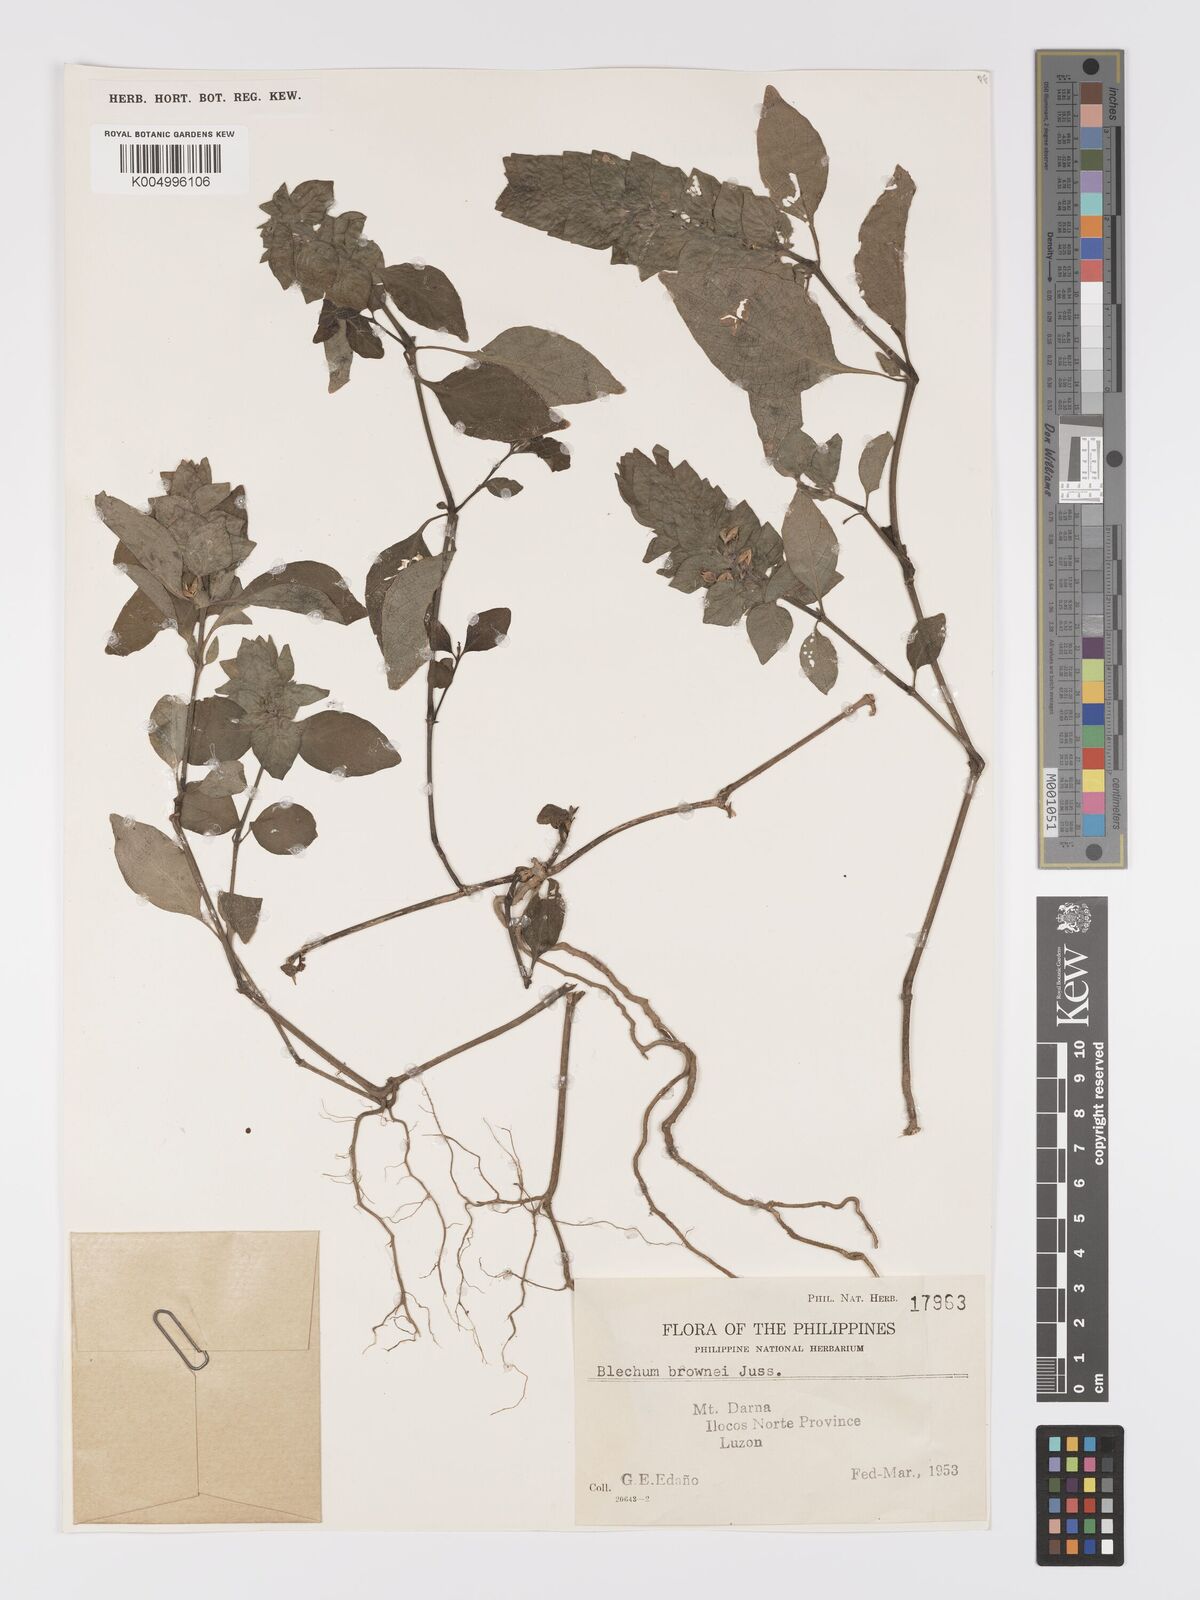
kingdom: Plantae
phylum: Tracheophyta
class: Magnoliopsida
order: Lamiales
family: Acanthaceae
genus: Ruellia
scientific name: Ruellia blechum
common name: Browne's blechum
